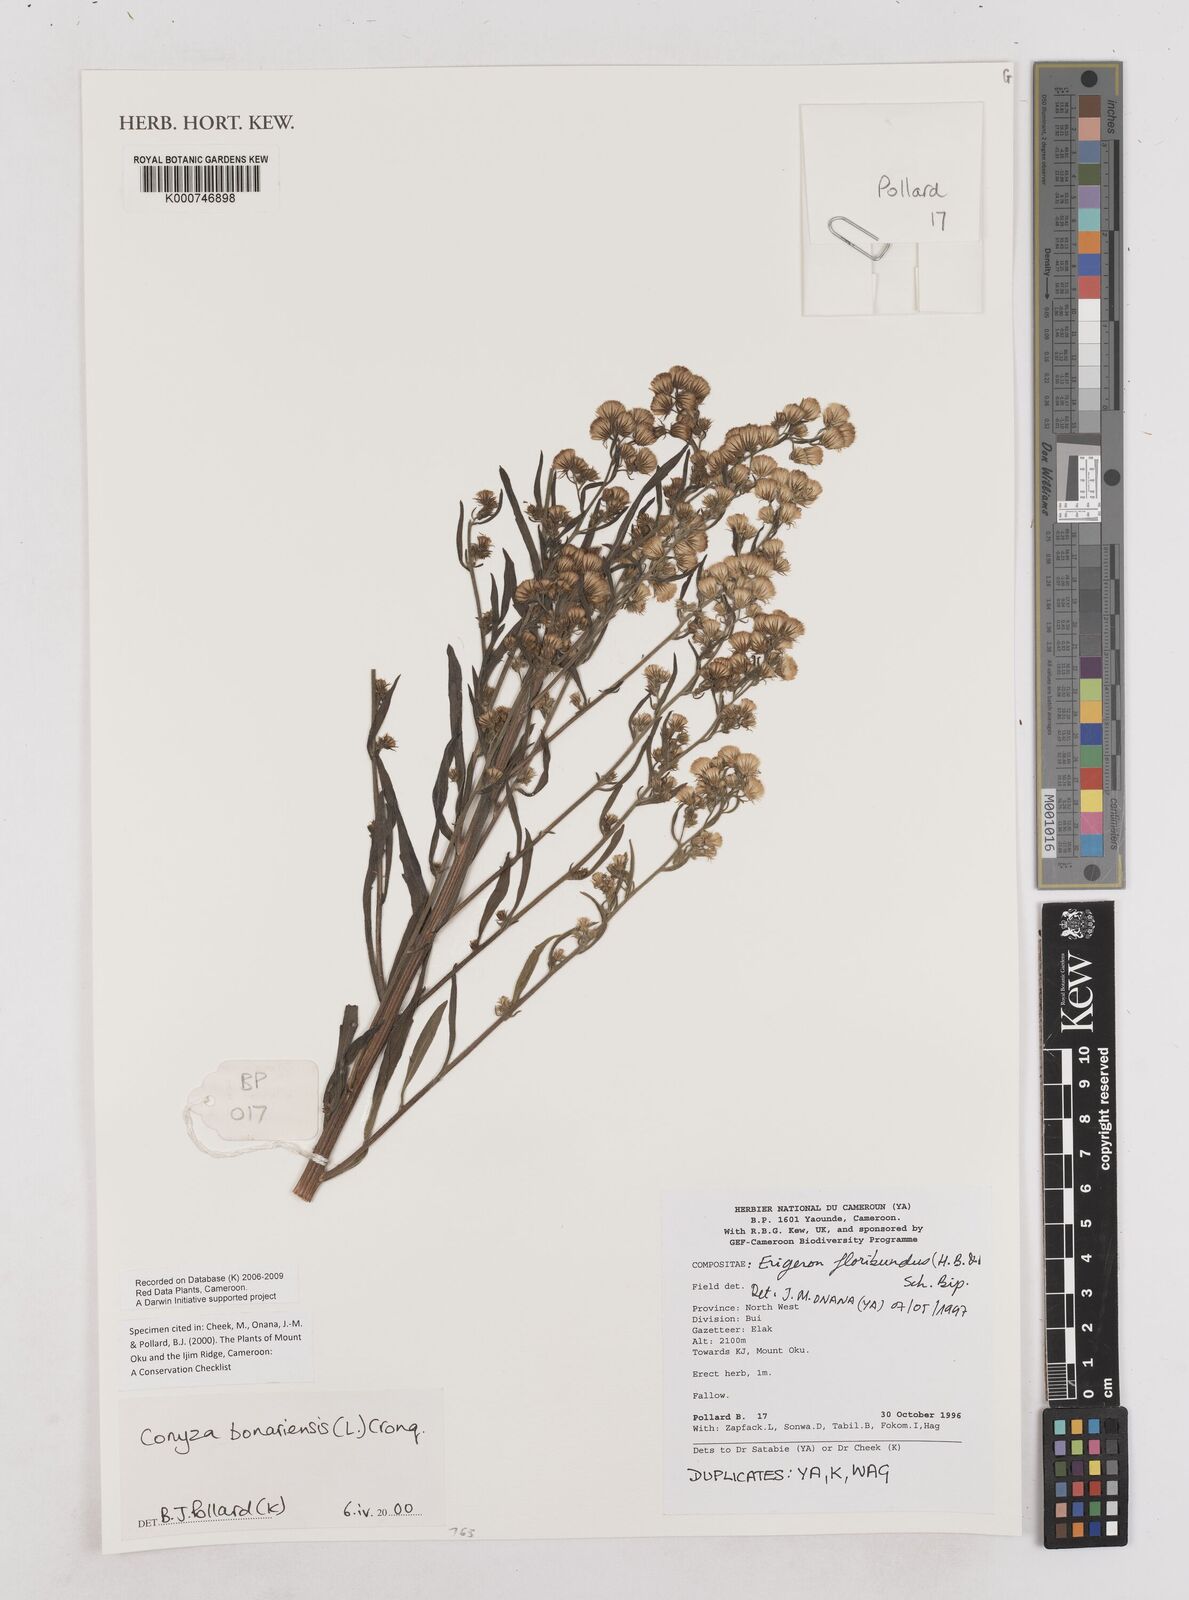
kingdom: Plantae
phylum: Tracheophyta
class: Magnoliopsida
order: Asterales
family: Asteraceae
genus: Erigeron
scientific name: Erigeron bonariensis
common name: Argentine fleabane
